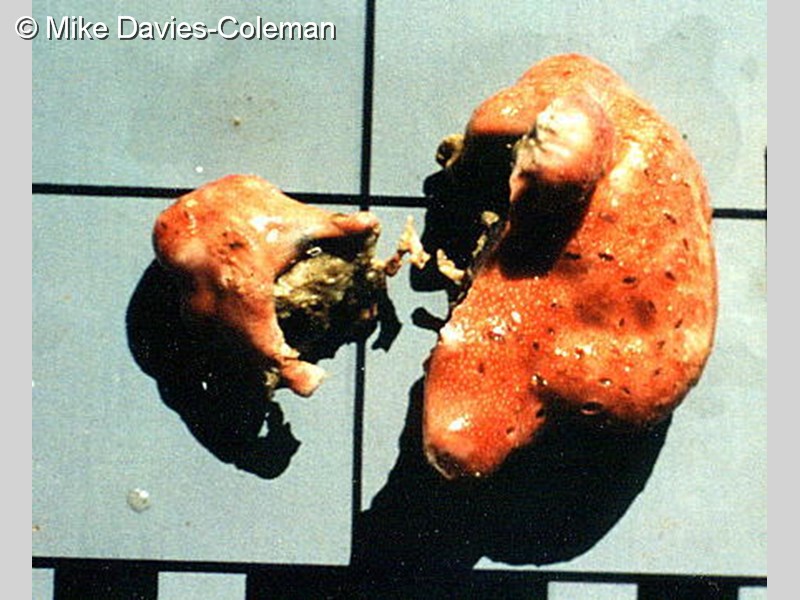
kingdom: Animalia
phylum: Chordata
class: Ascidiacea
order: Aplousobranchia
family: Didemnidae
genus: Didemnum
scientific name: Didemnum
